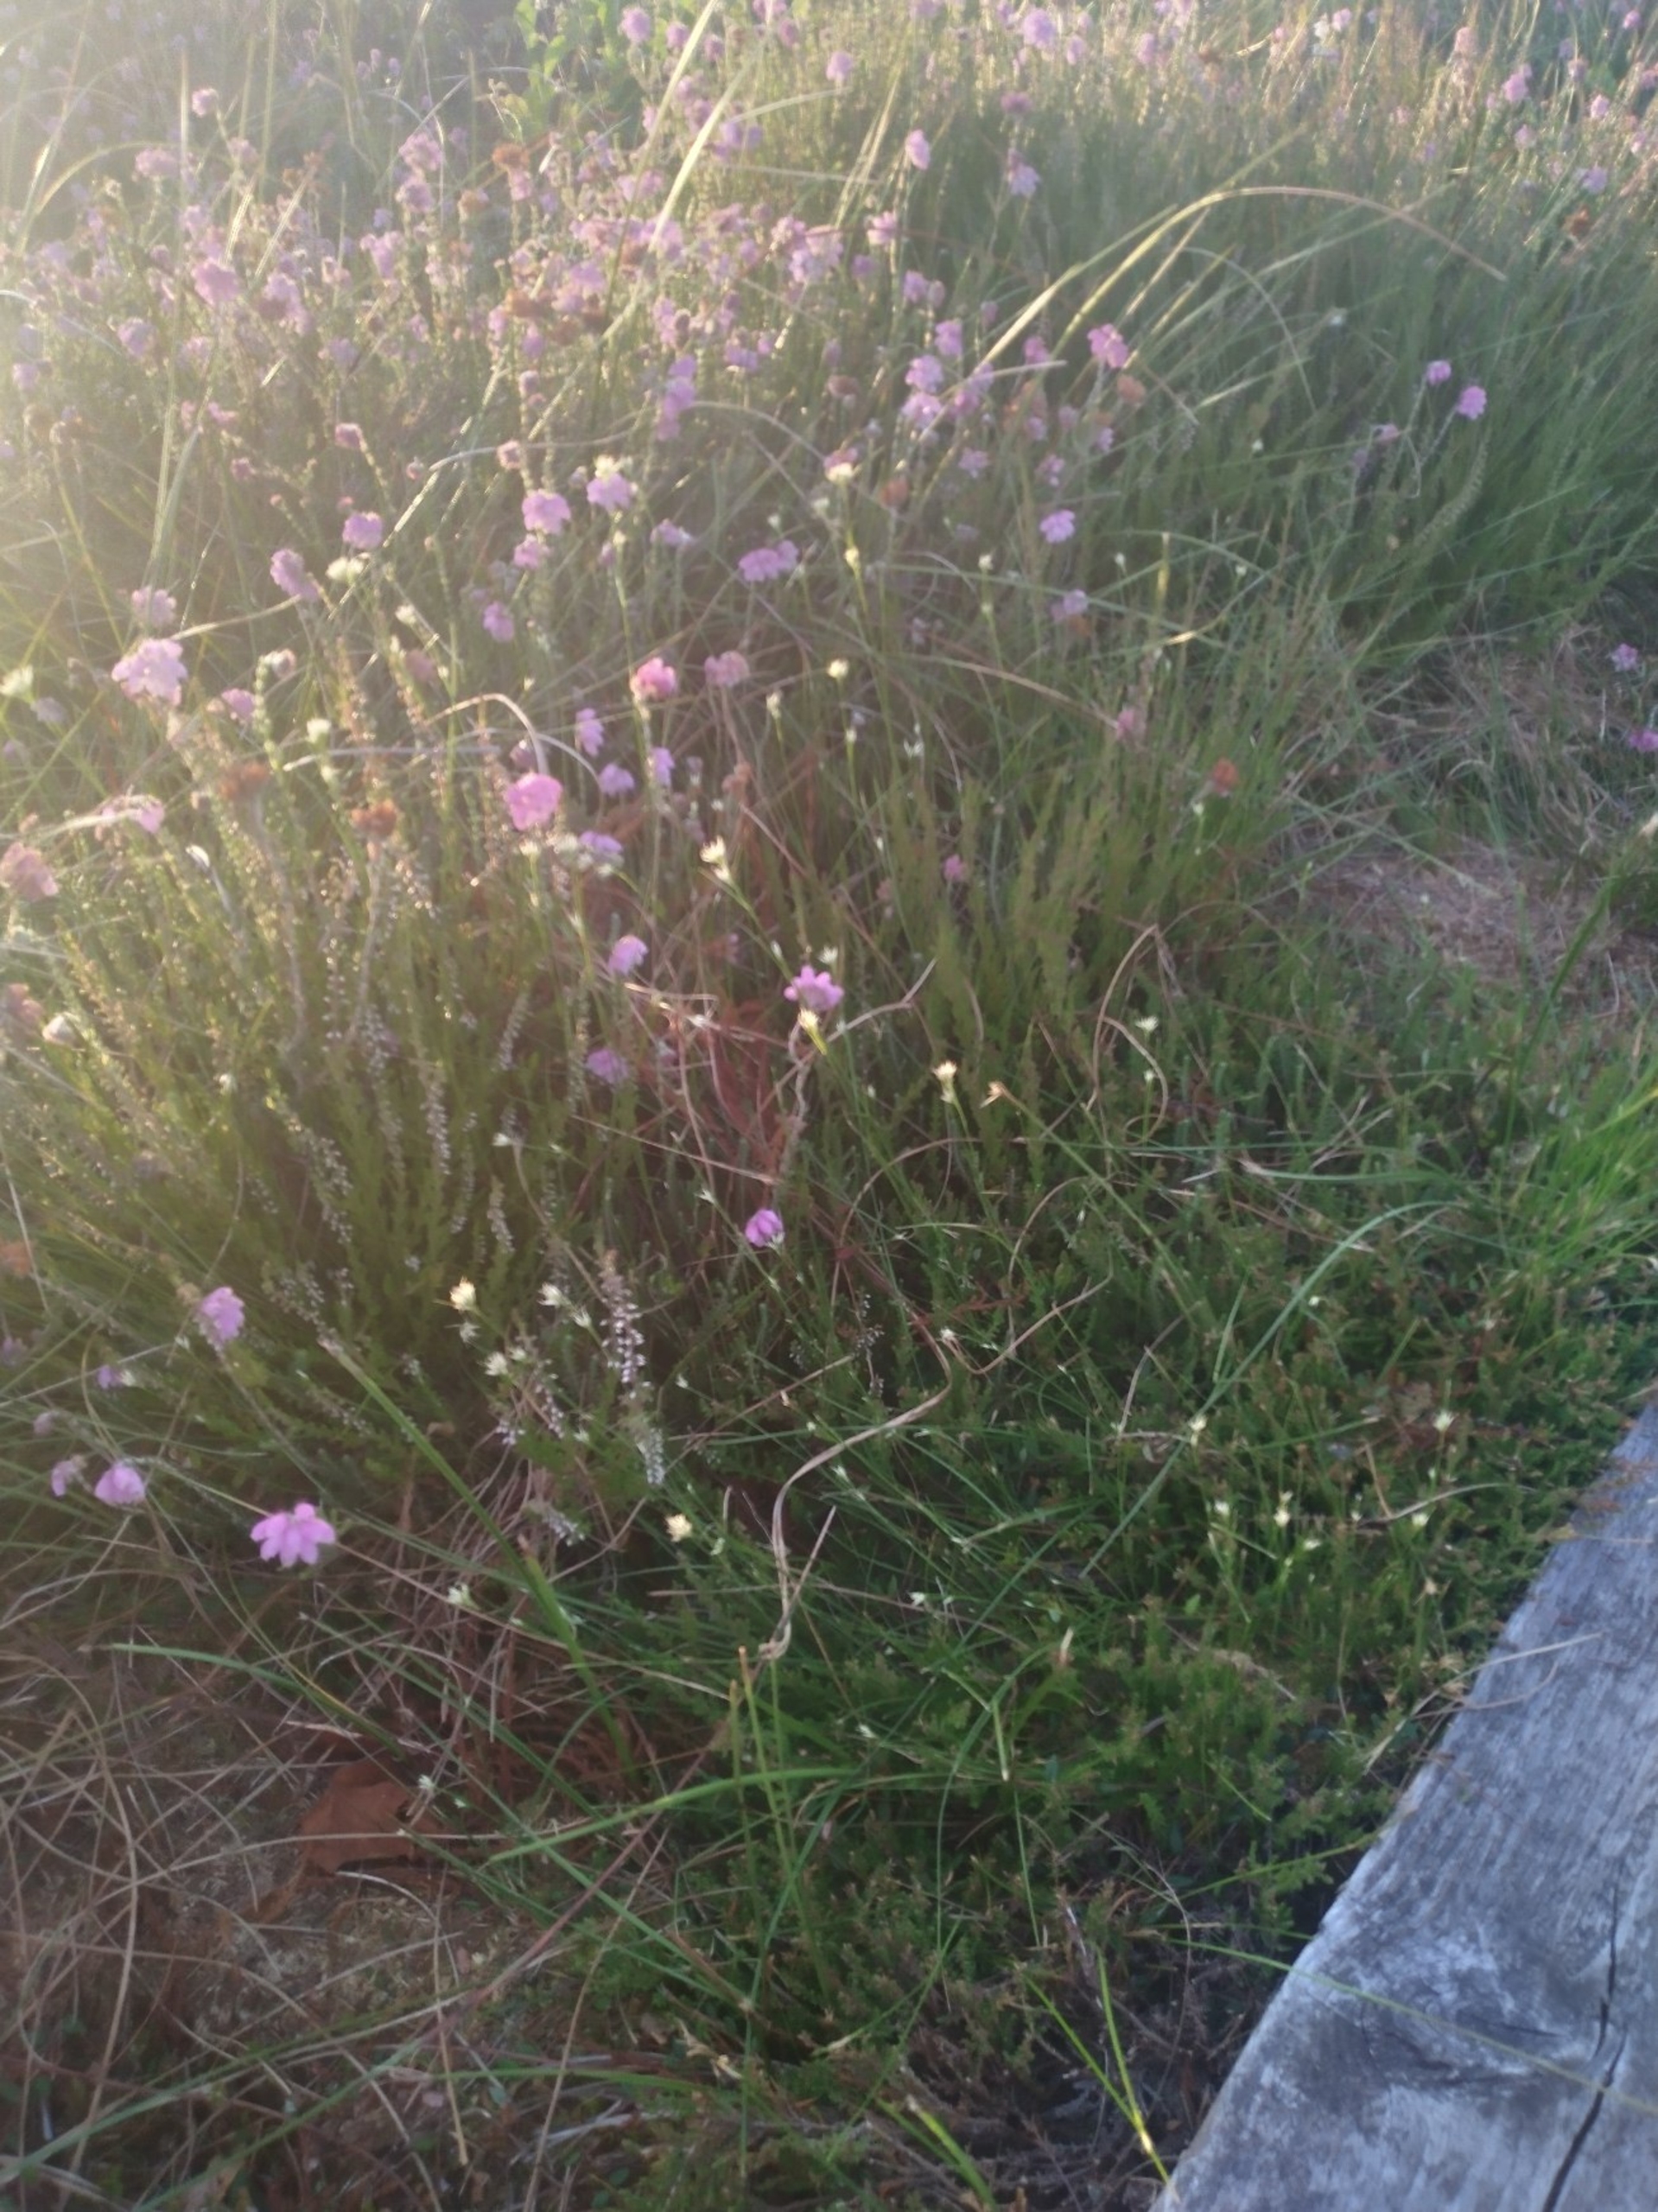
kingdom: Plantae
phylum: Tracheophyta
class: Liliopsida
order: Poales
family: Cyperaceae
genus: Rhynchospora
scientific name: Rhynchospora alba
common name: Hvid næbfrø
